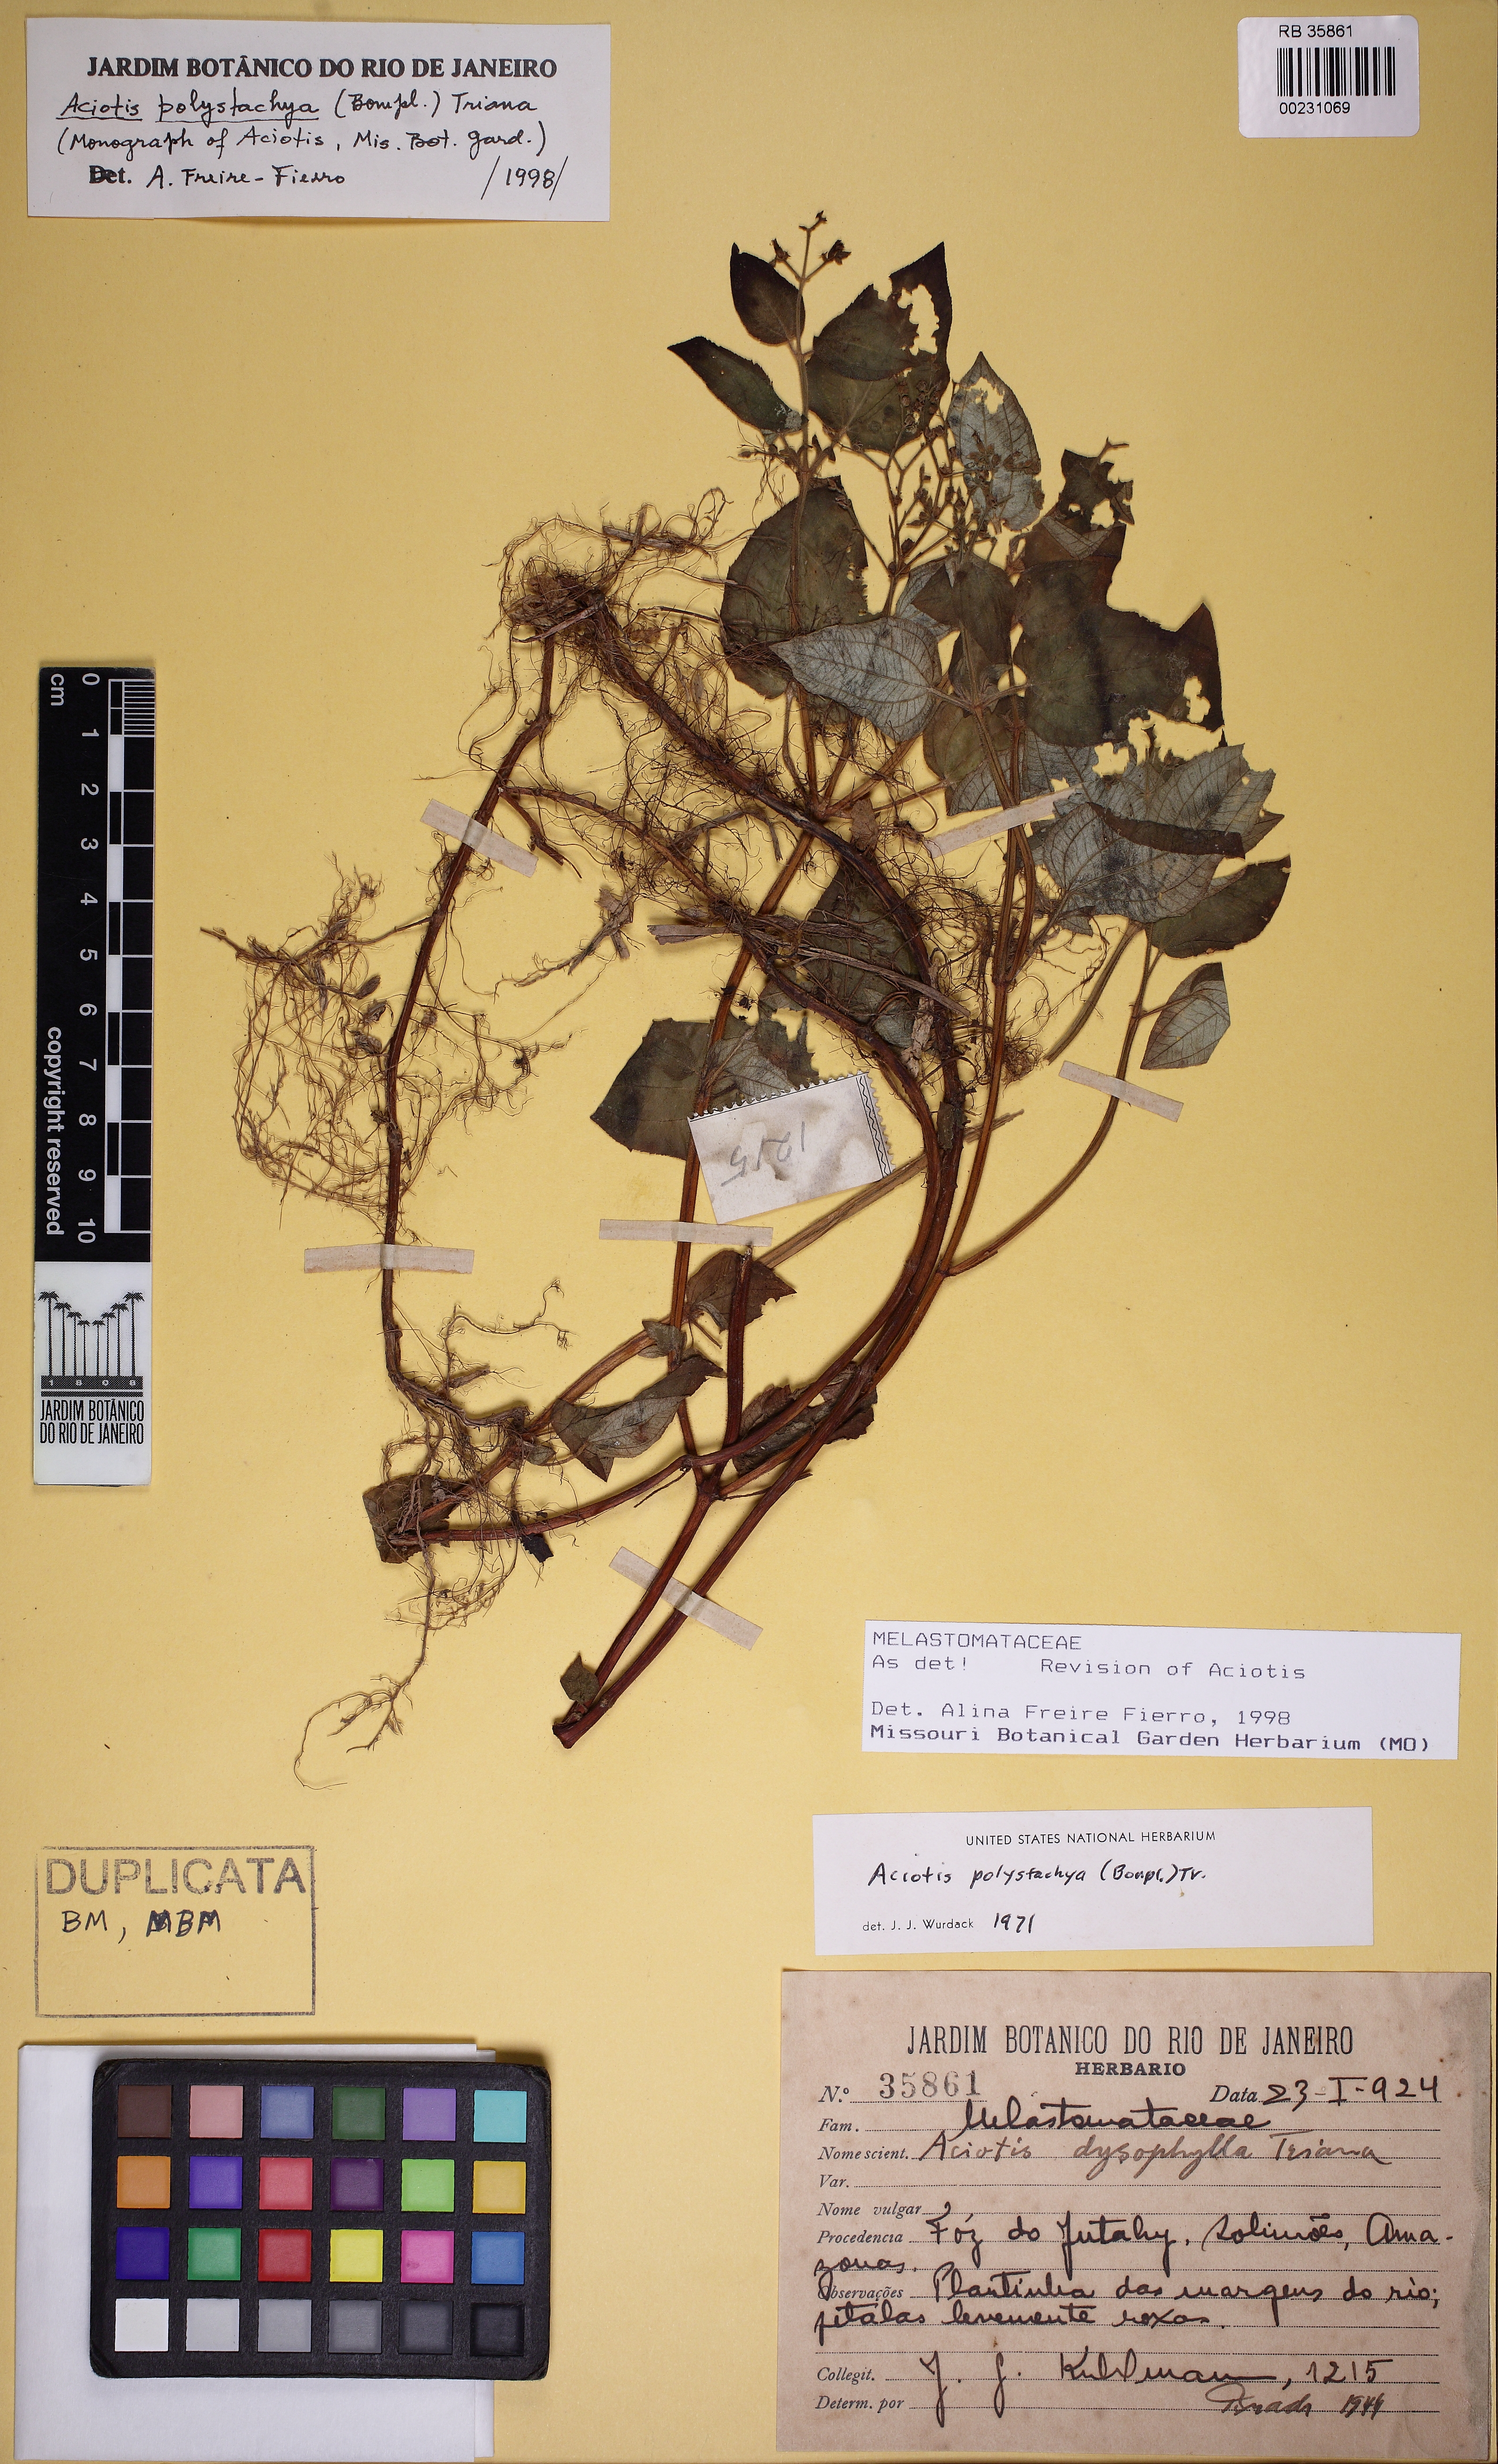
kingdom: Plantae
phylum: Tracheophyta
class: Magnoliopsida
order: Myrtales
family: Melastomataceae
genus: Aciotis
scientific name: Aciotis polystachya
